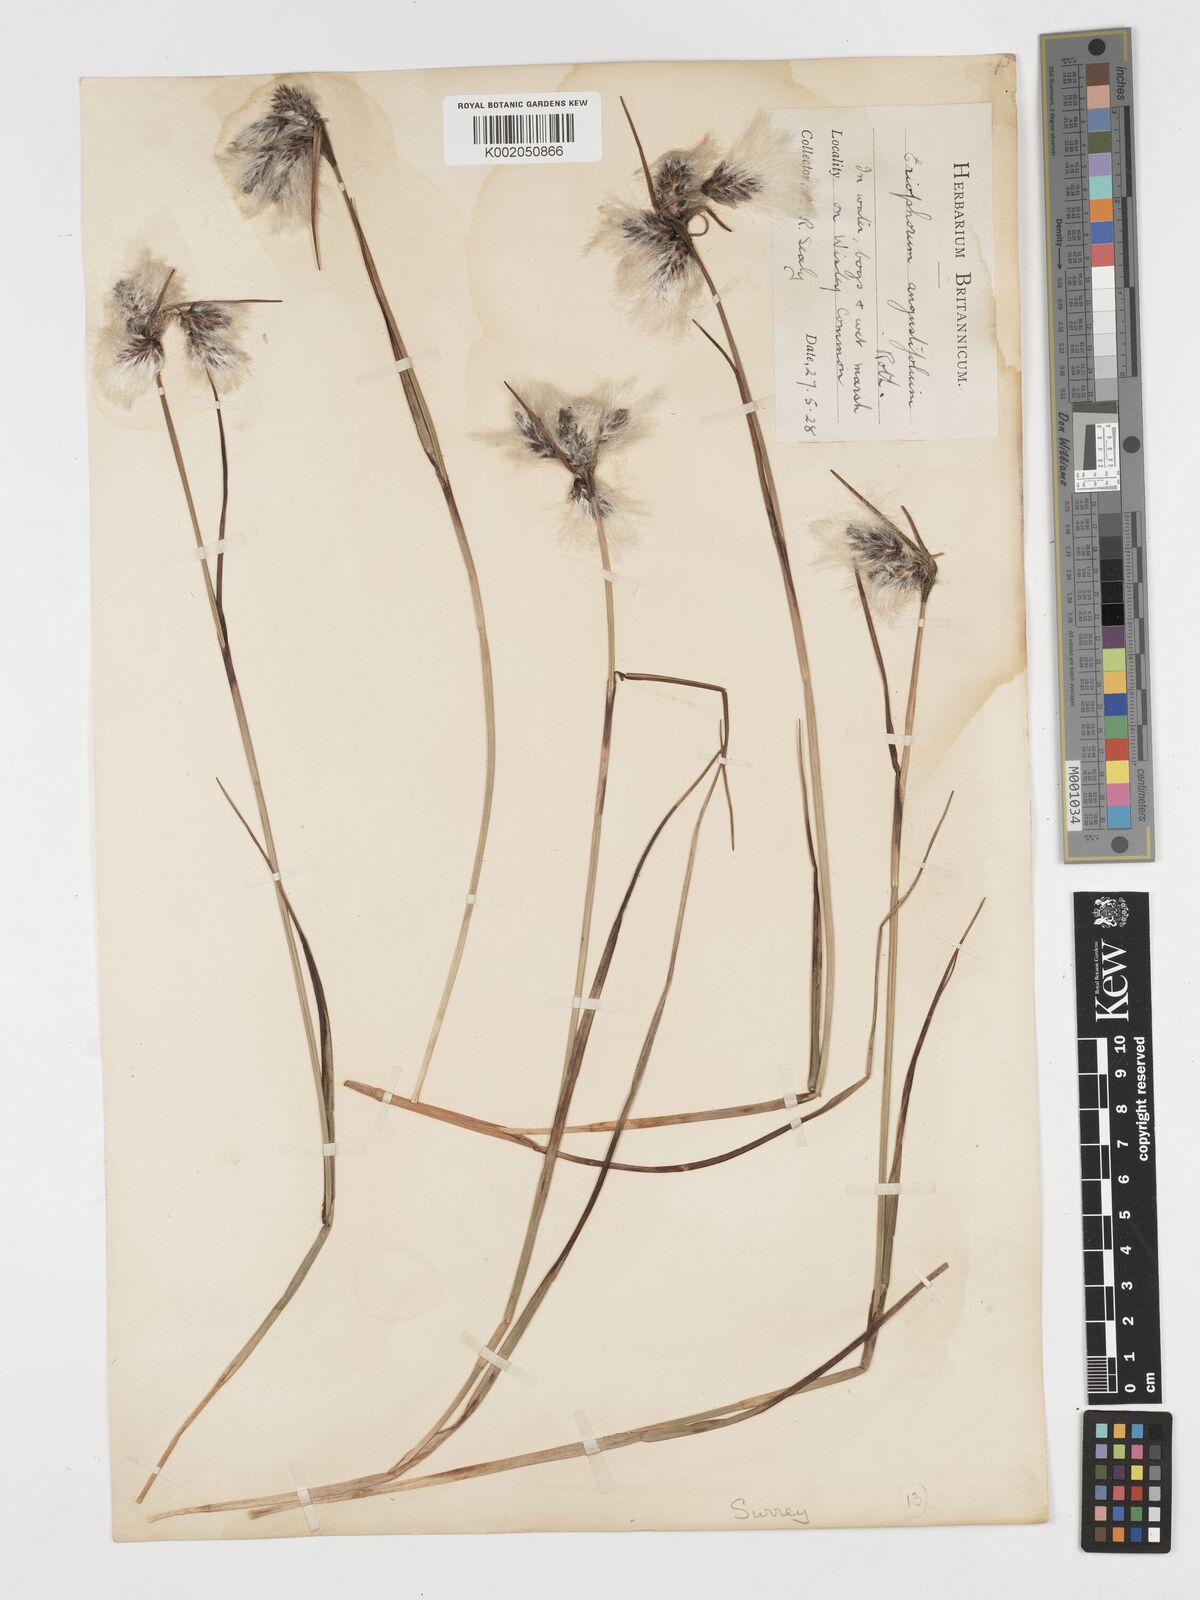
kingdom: Plantae
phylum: Tracheophyta
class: Liliopsida
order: Poales
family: Cyperaceae
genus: Eriophorum
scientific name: Eriophorum angustifolium
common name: Common cottongrass
